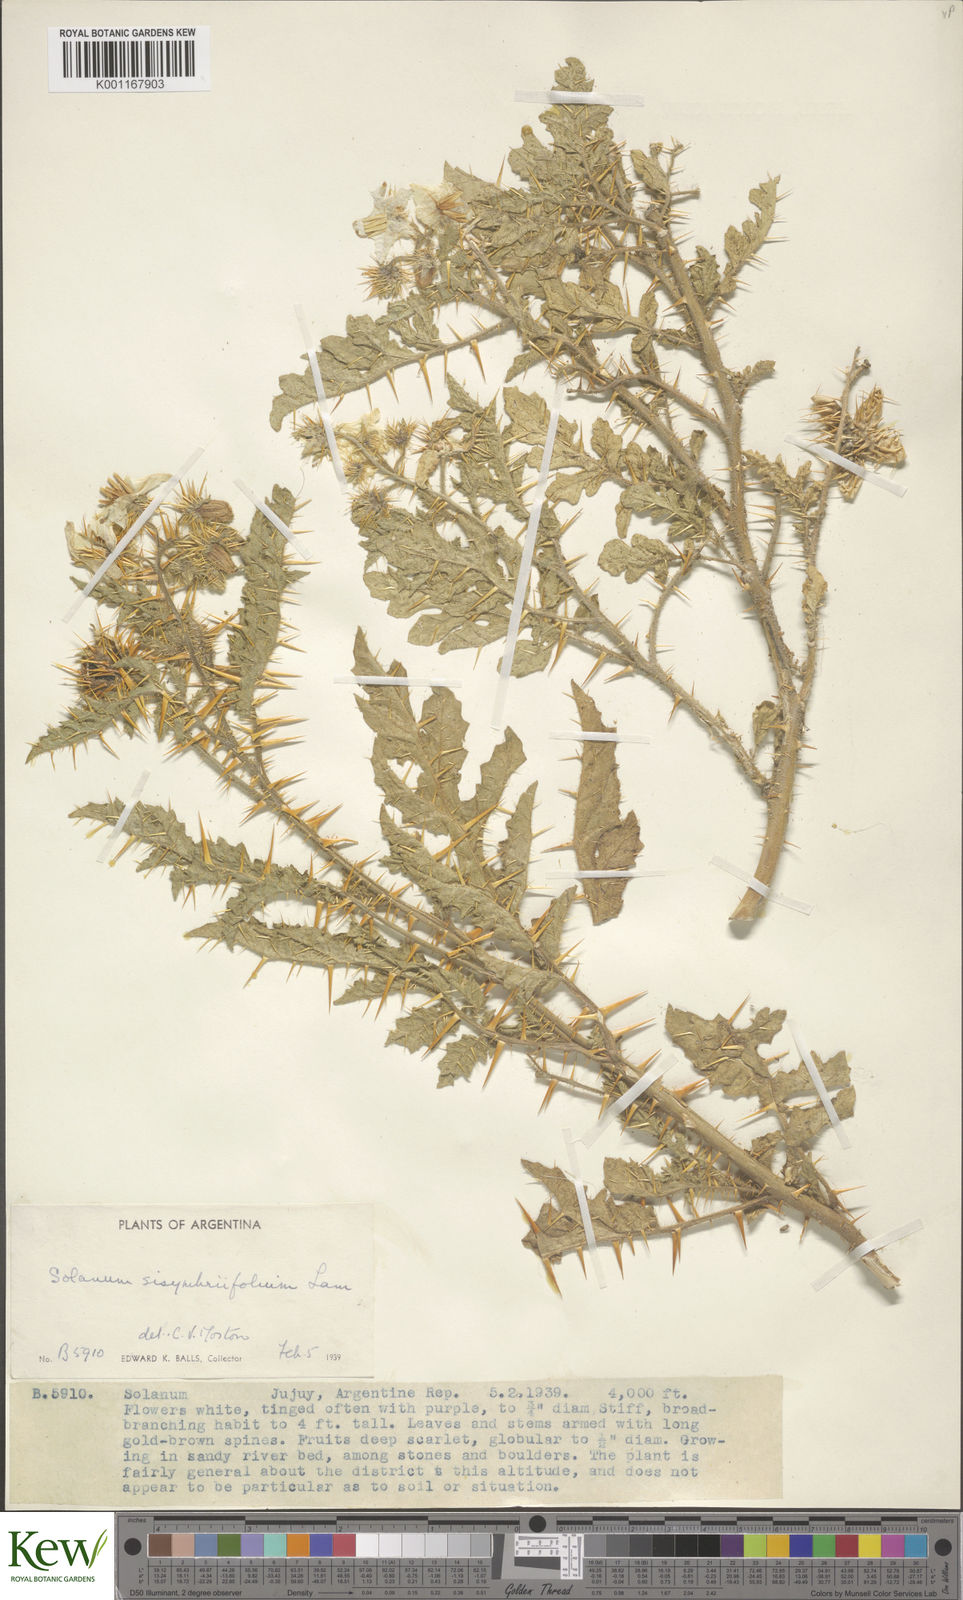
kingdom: Plantae
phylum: Tracheophyta
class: Magnoliopsida
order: Solanales
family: Solanaceae
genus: Solanum
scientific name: Solanum sisymbriifolium
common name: Red buffalo-bur
